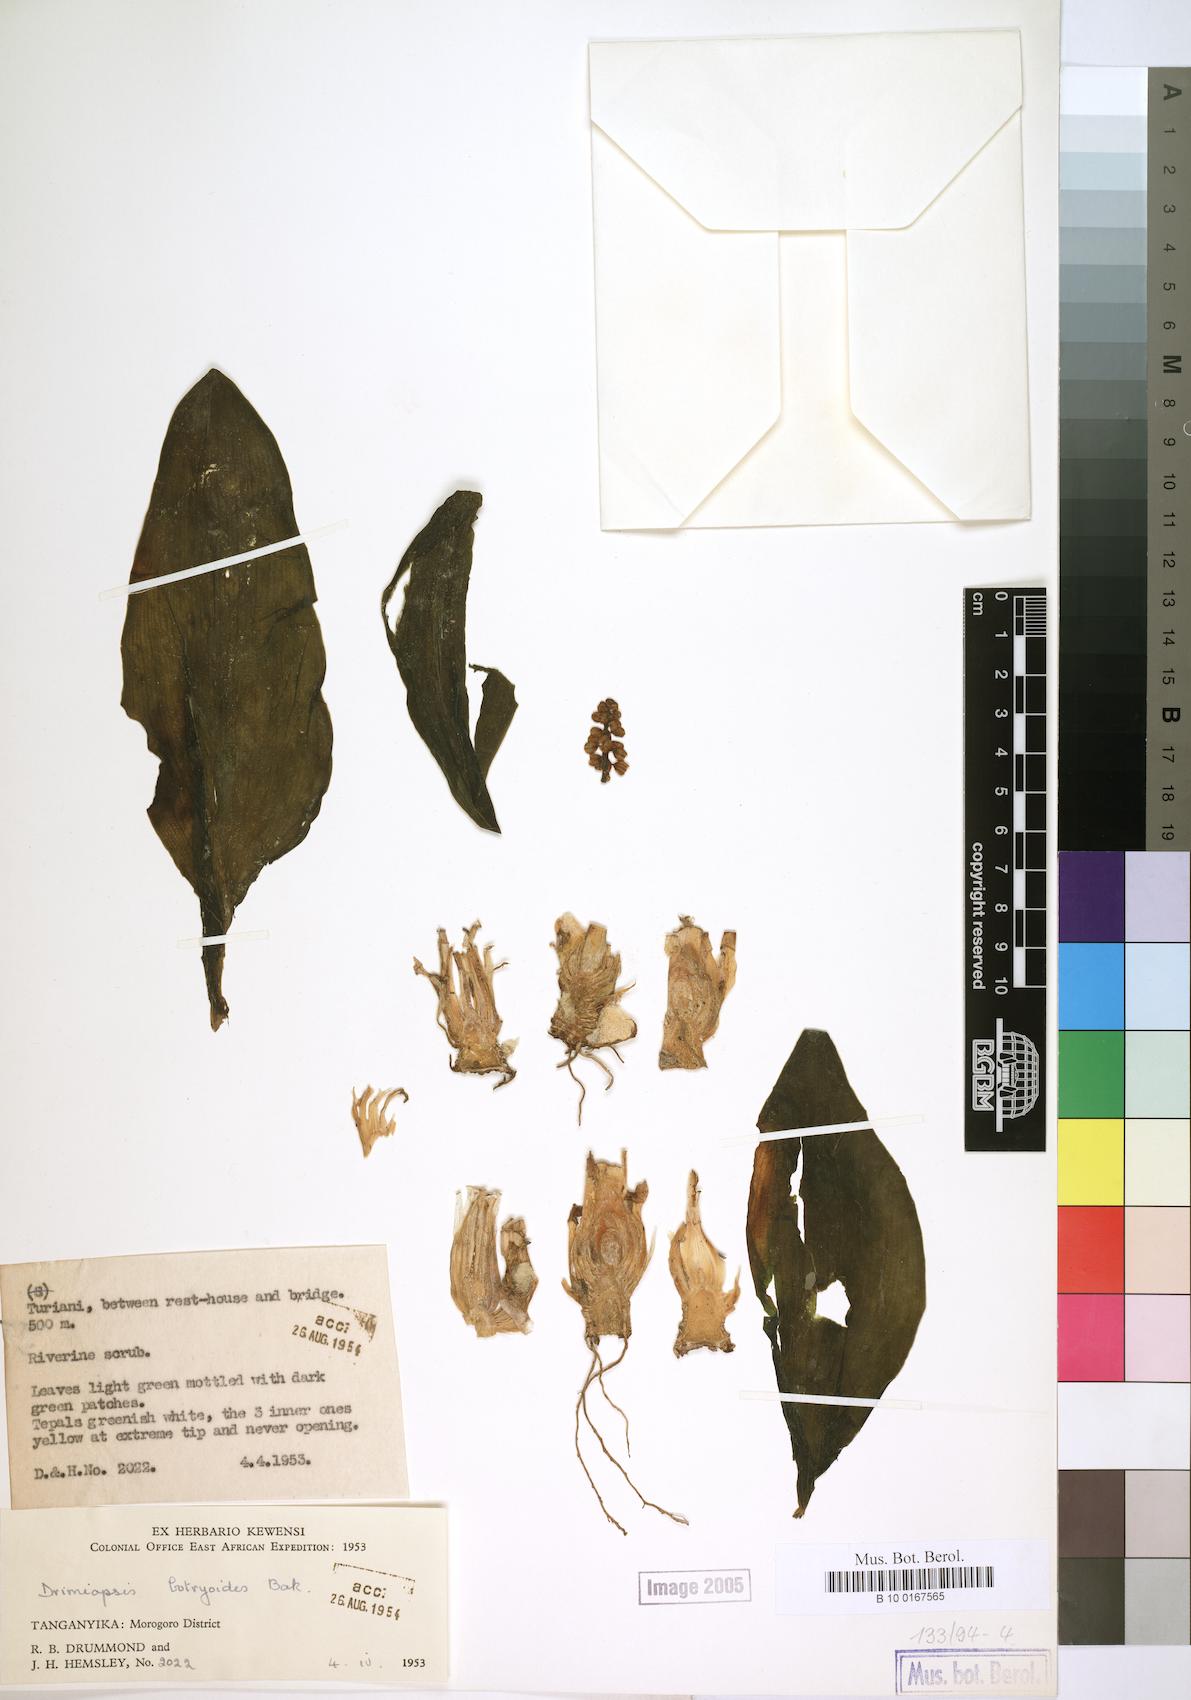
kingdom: Plantae
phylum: Tracheophyta
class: Liliopsida
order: Asparagales
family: Asparagaceae
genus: Drimiopsis
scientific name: Drimiopsis botryoides
